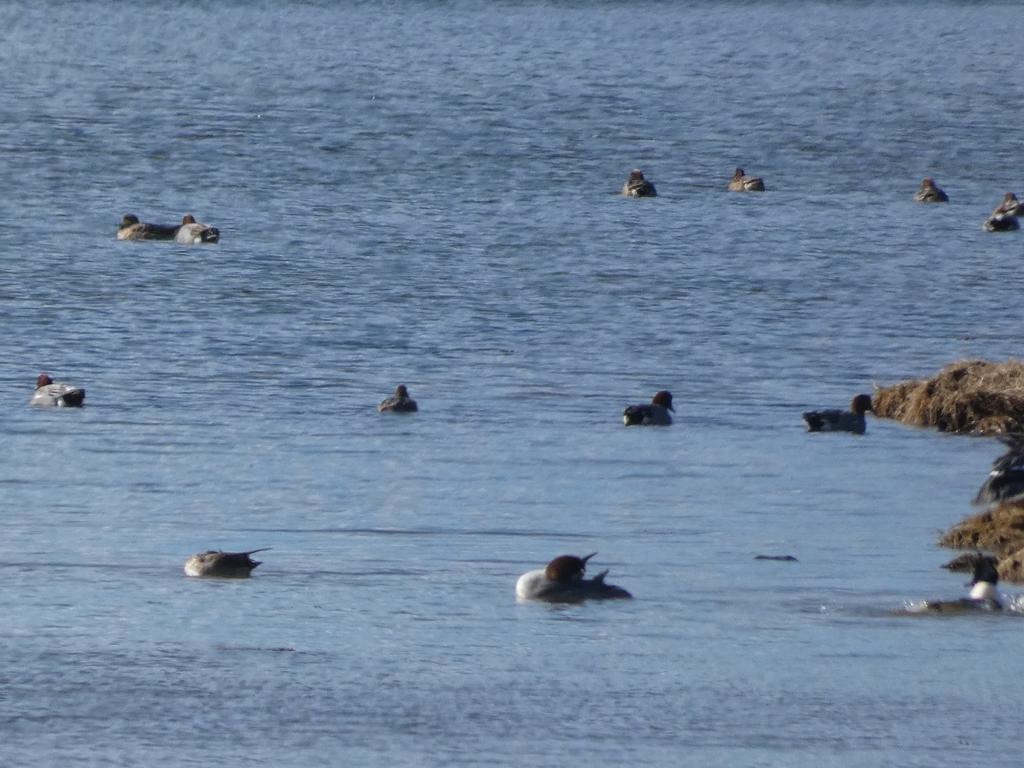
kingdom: Animalia
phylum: Chordata
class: Aves
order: Anseriformes
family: Anatidae
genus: Mareca
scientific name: Mareca penelope
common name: Pibeand
